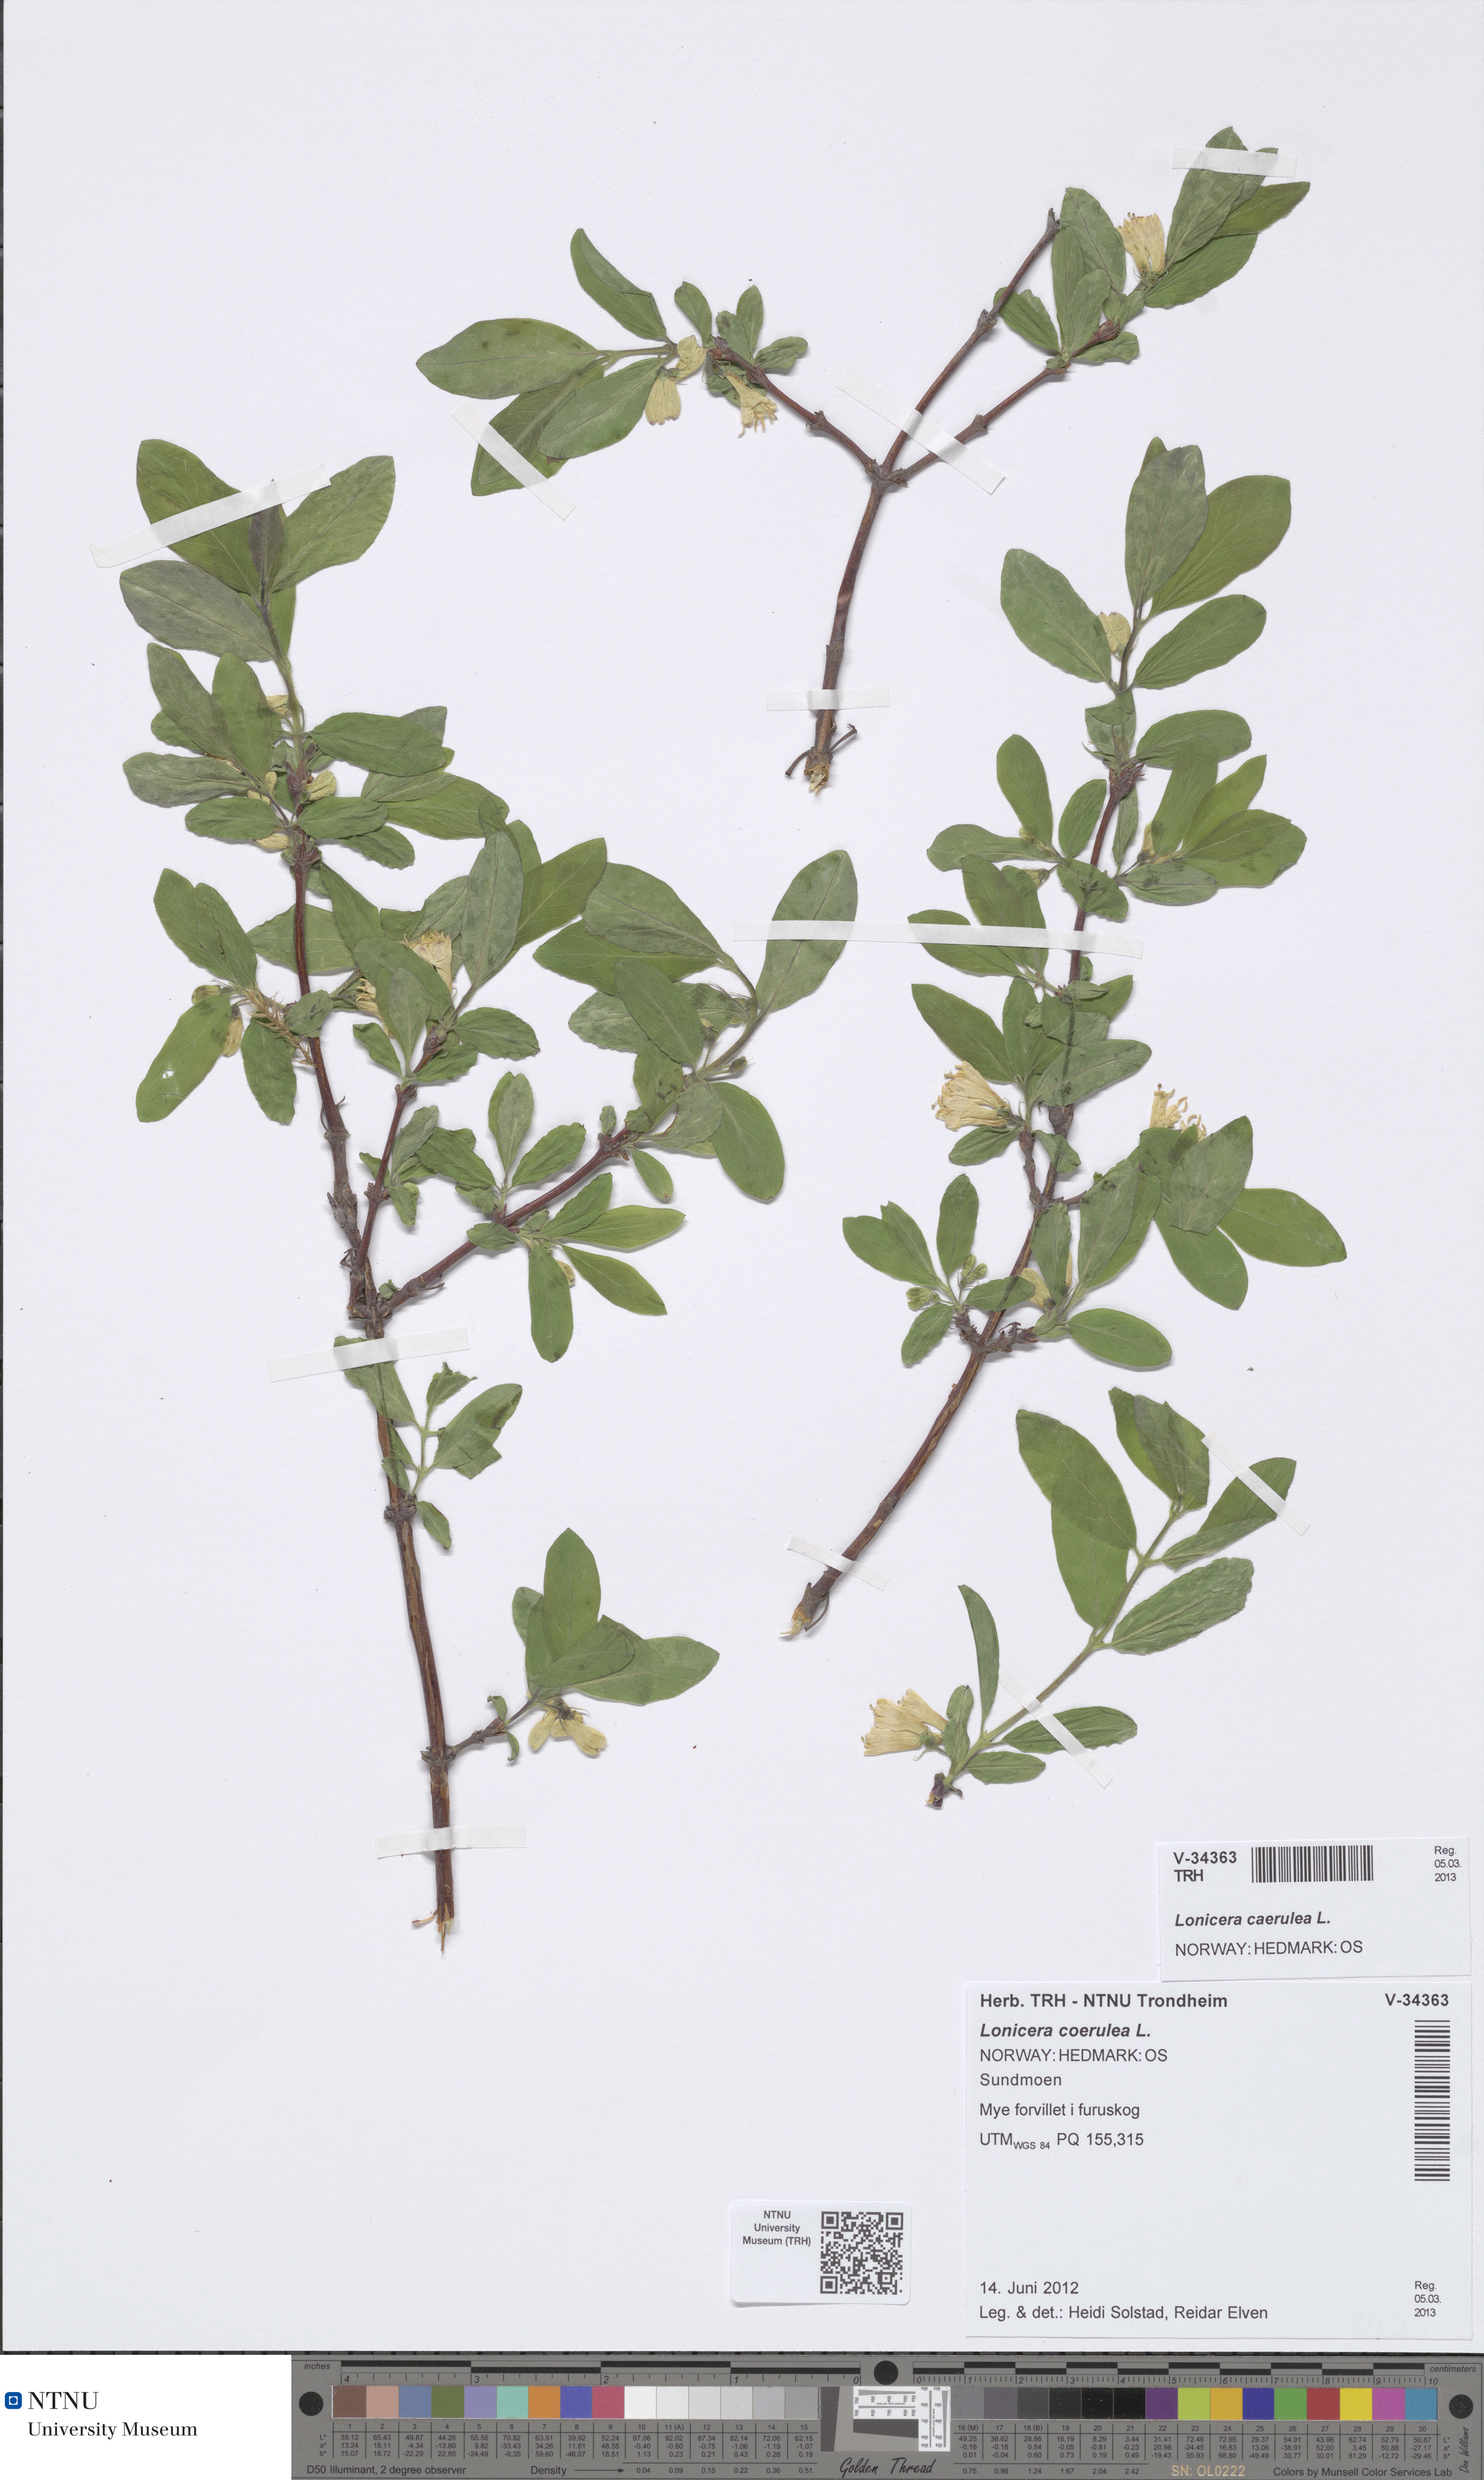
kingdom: Plantae
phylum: Tracheophyta
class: Magnoliopsida
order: Dipsacales
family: Caprifoliaceae
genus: Lonicera
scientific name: Lonicera caerulea
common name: Blue honeysuckle
